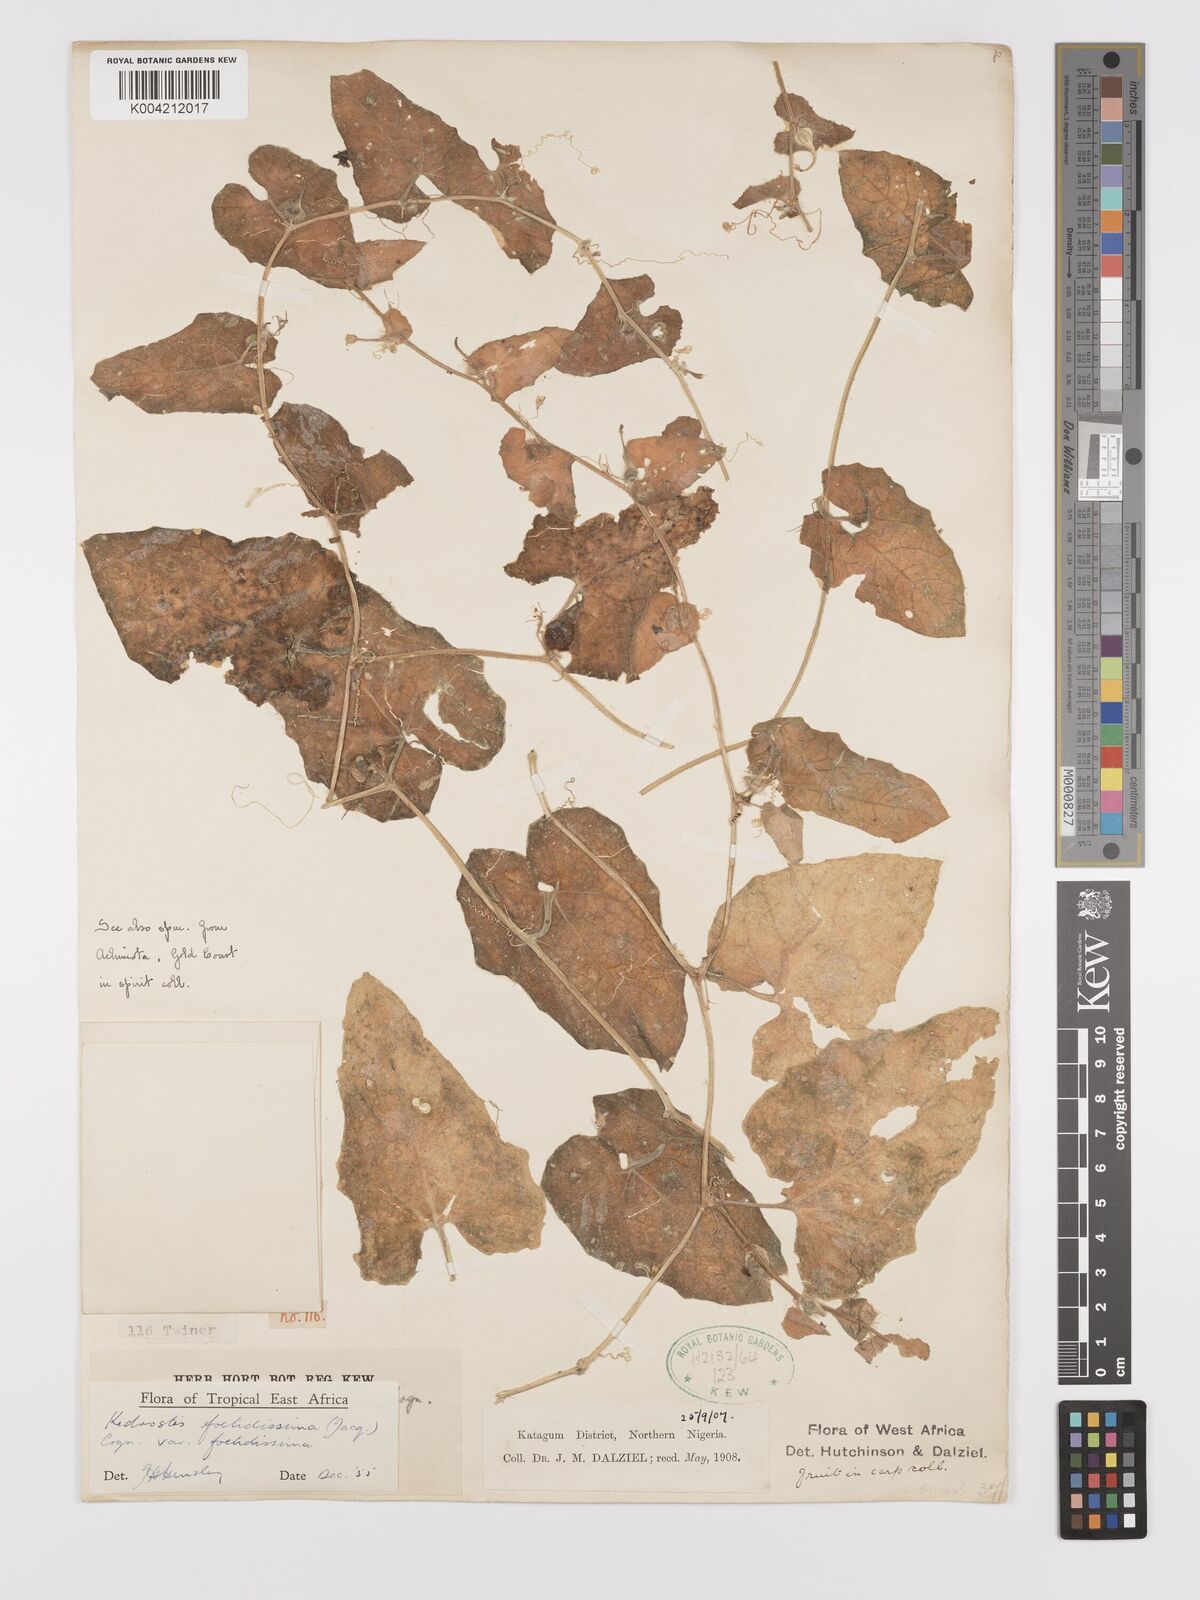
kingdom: Plantae
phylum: Tracheophyta
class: Magnoliopsida
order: Cucurbitales
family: Cucurbitaceae
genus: Kedrostis
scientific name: Kedrostis foetidissima
